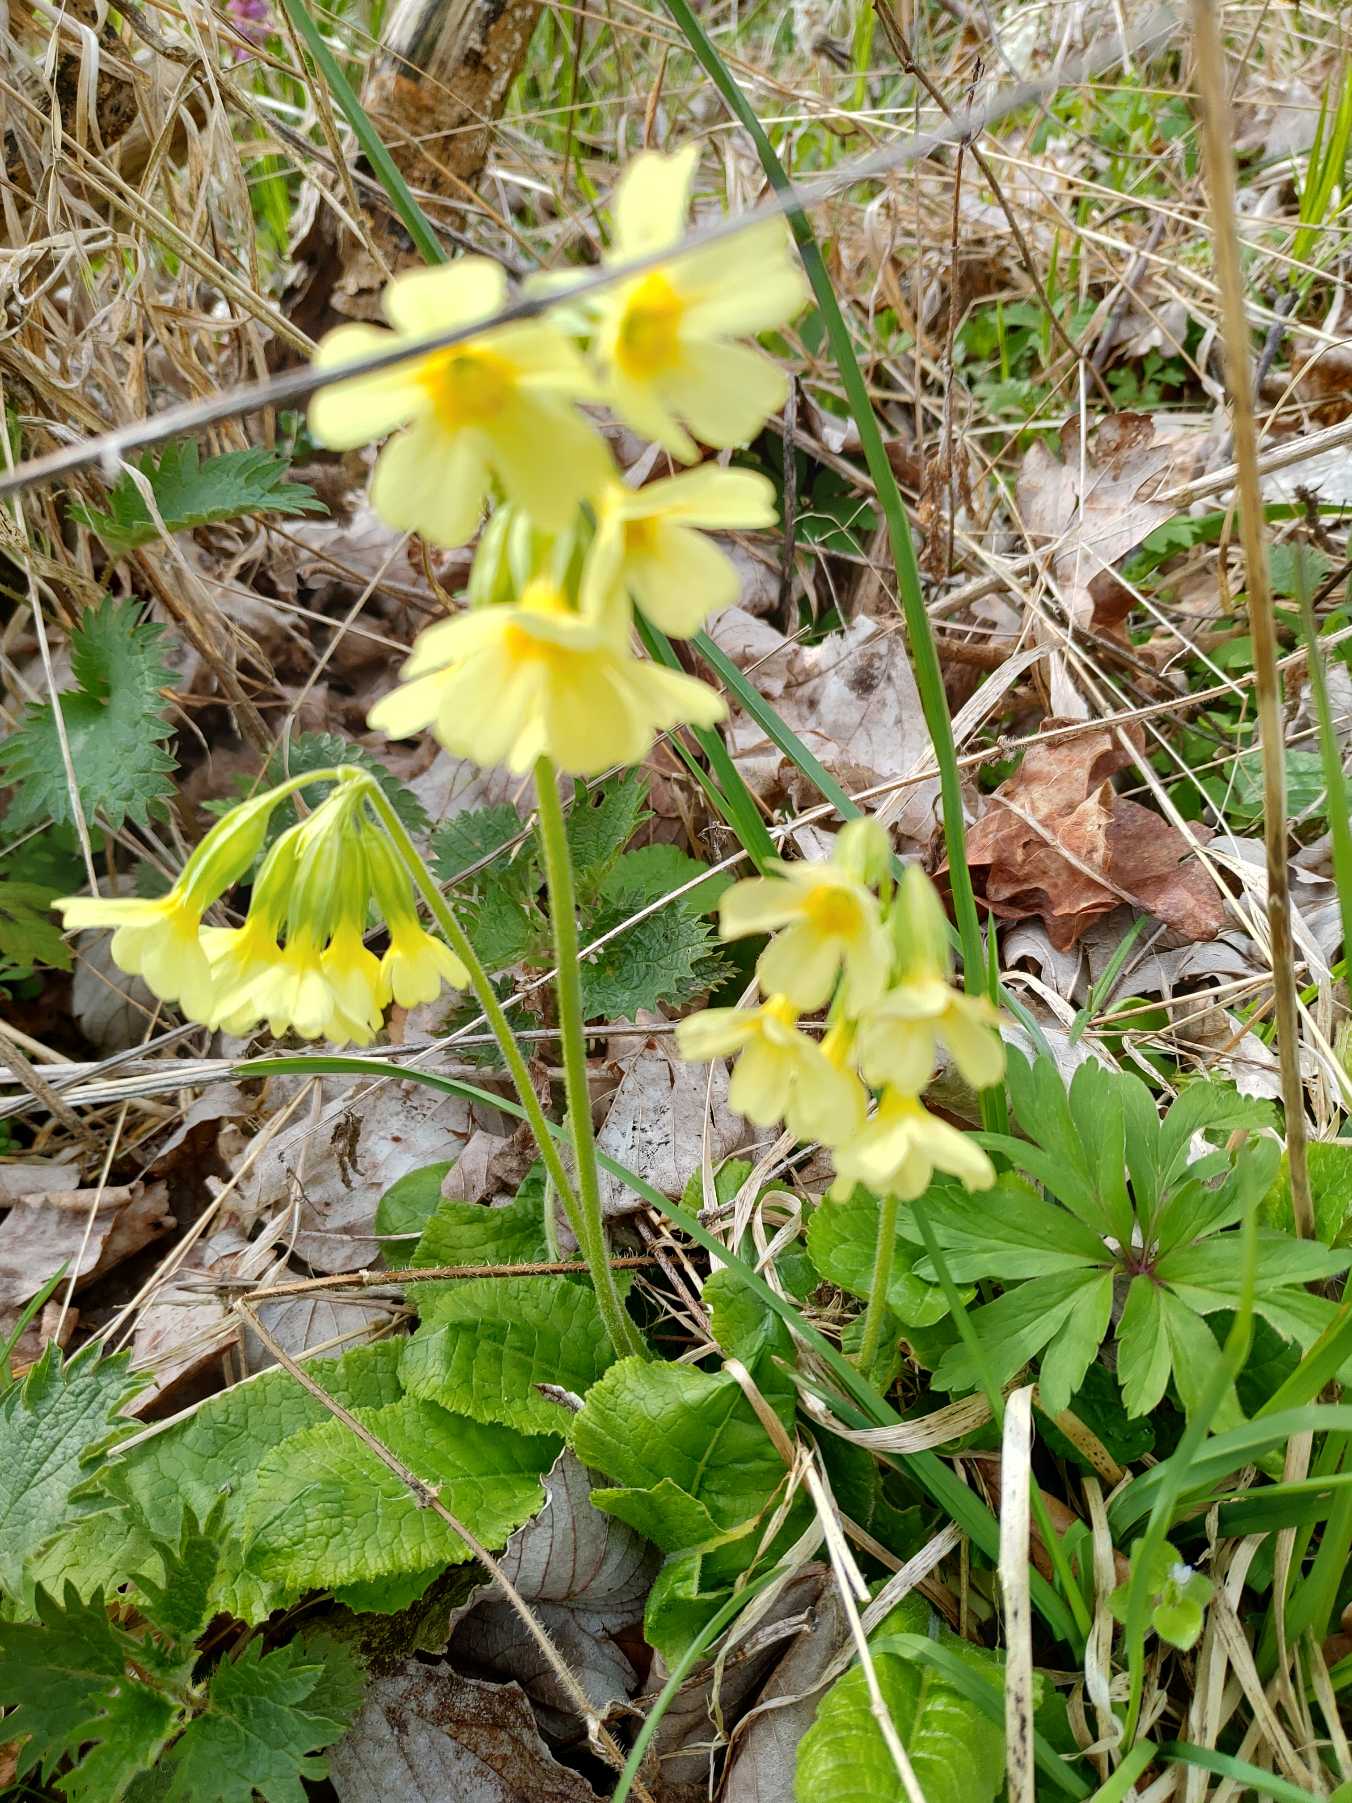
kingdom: Plantae
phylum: Tracheophyta
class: Magnoliopsida
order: Ericales
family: Primulaceae
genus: Primula
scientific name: Primula elatior
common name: Fladkravet kodriver
